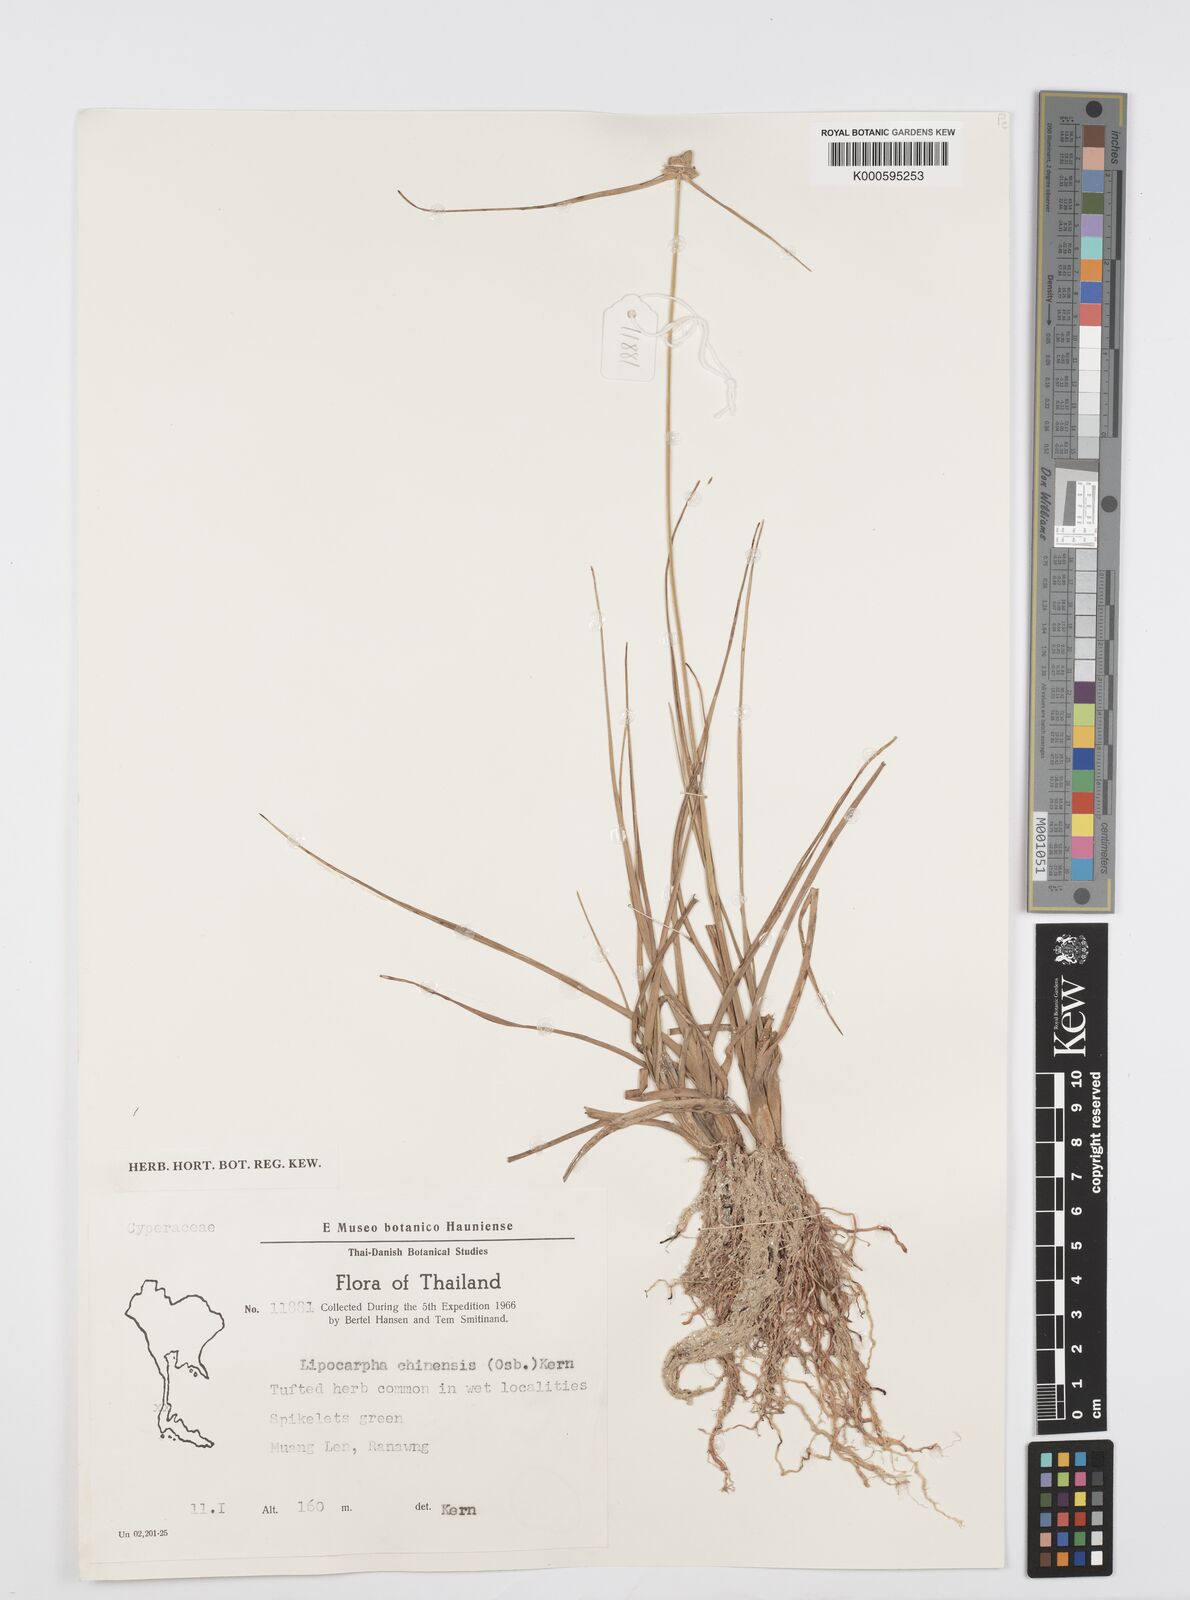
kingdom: Plantae
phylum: Tracheophyta
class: Liliopsida
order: Poales
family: Cyperaceae
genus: Cyperus
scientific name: Cyperus albescens
